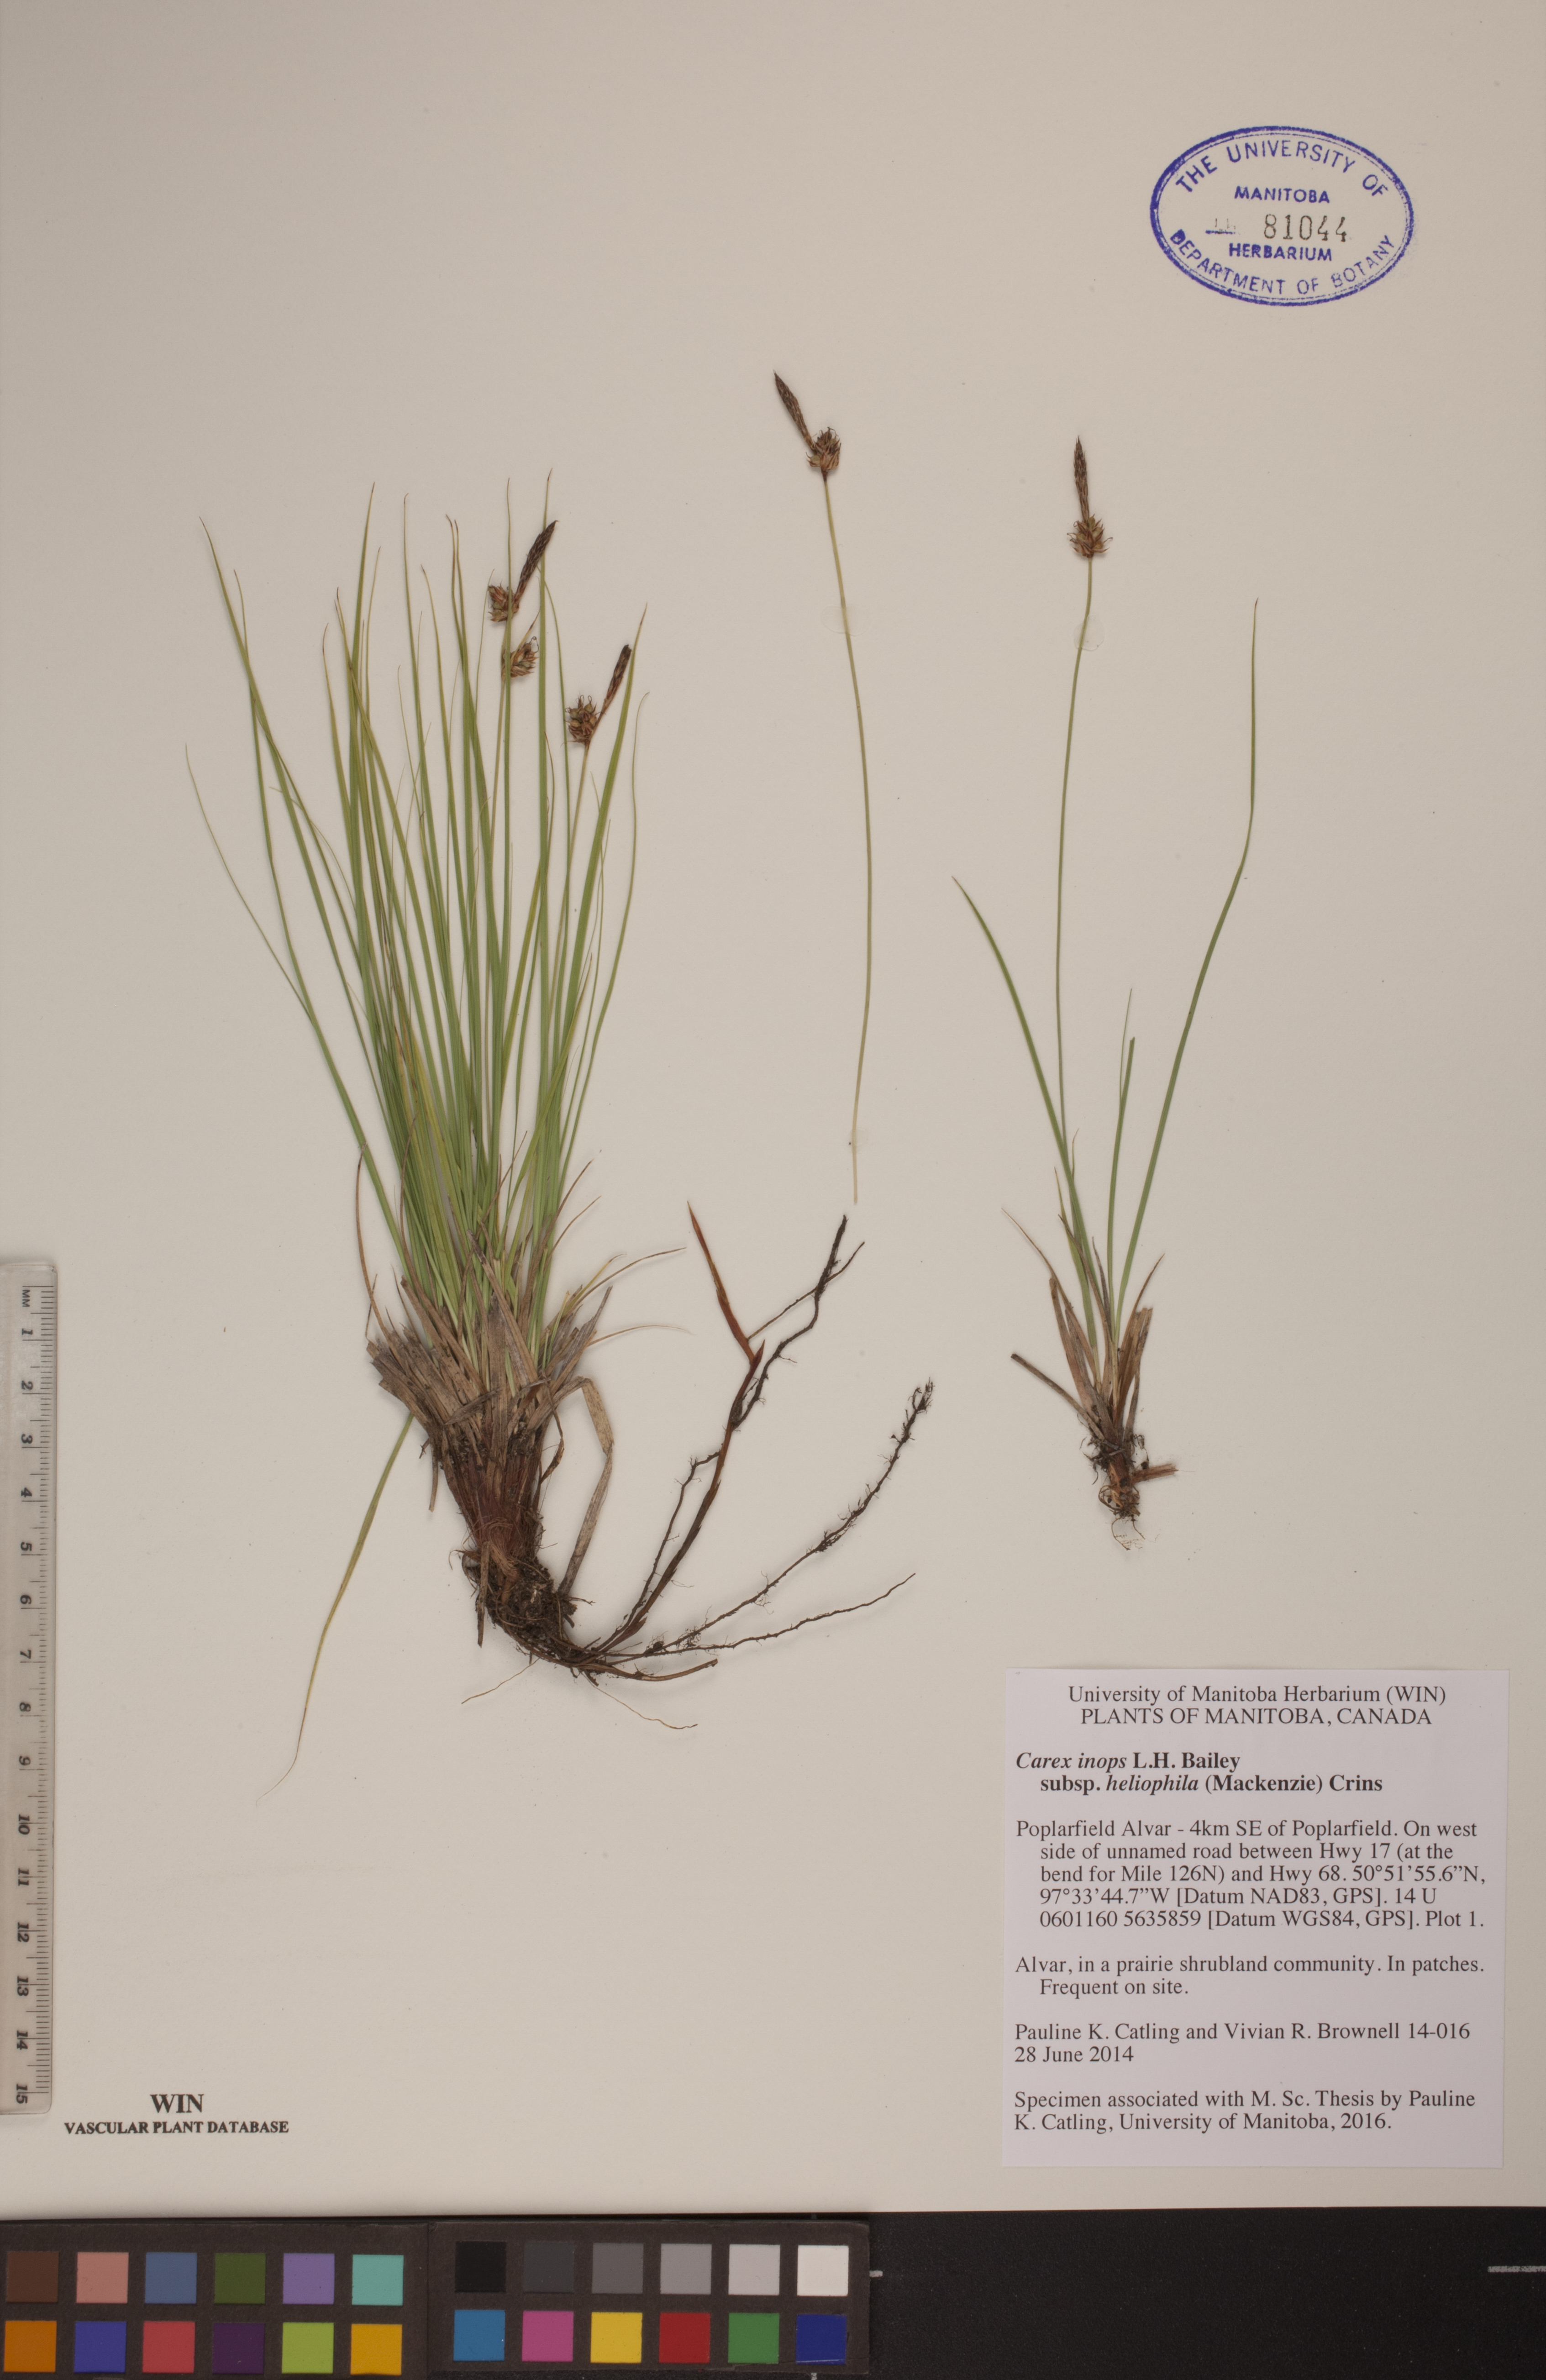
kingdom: Plantae
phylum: Tracheophyta
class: Liliopsida
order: Poales
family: Cyperaceae
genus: Carex
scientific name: Carex inops
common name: Long-stolon sedge
